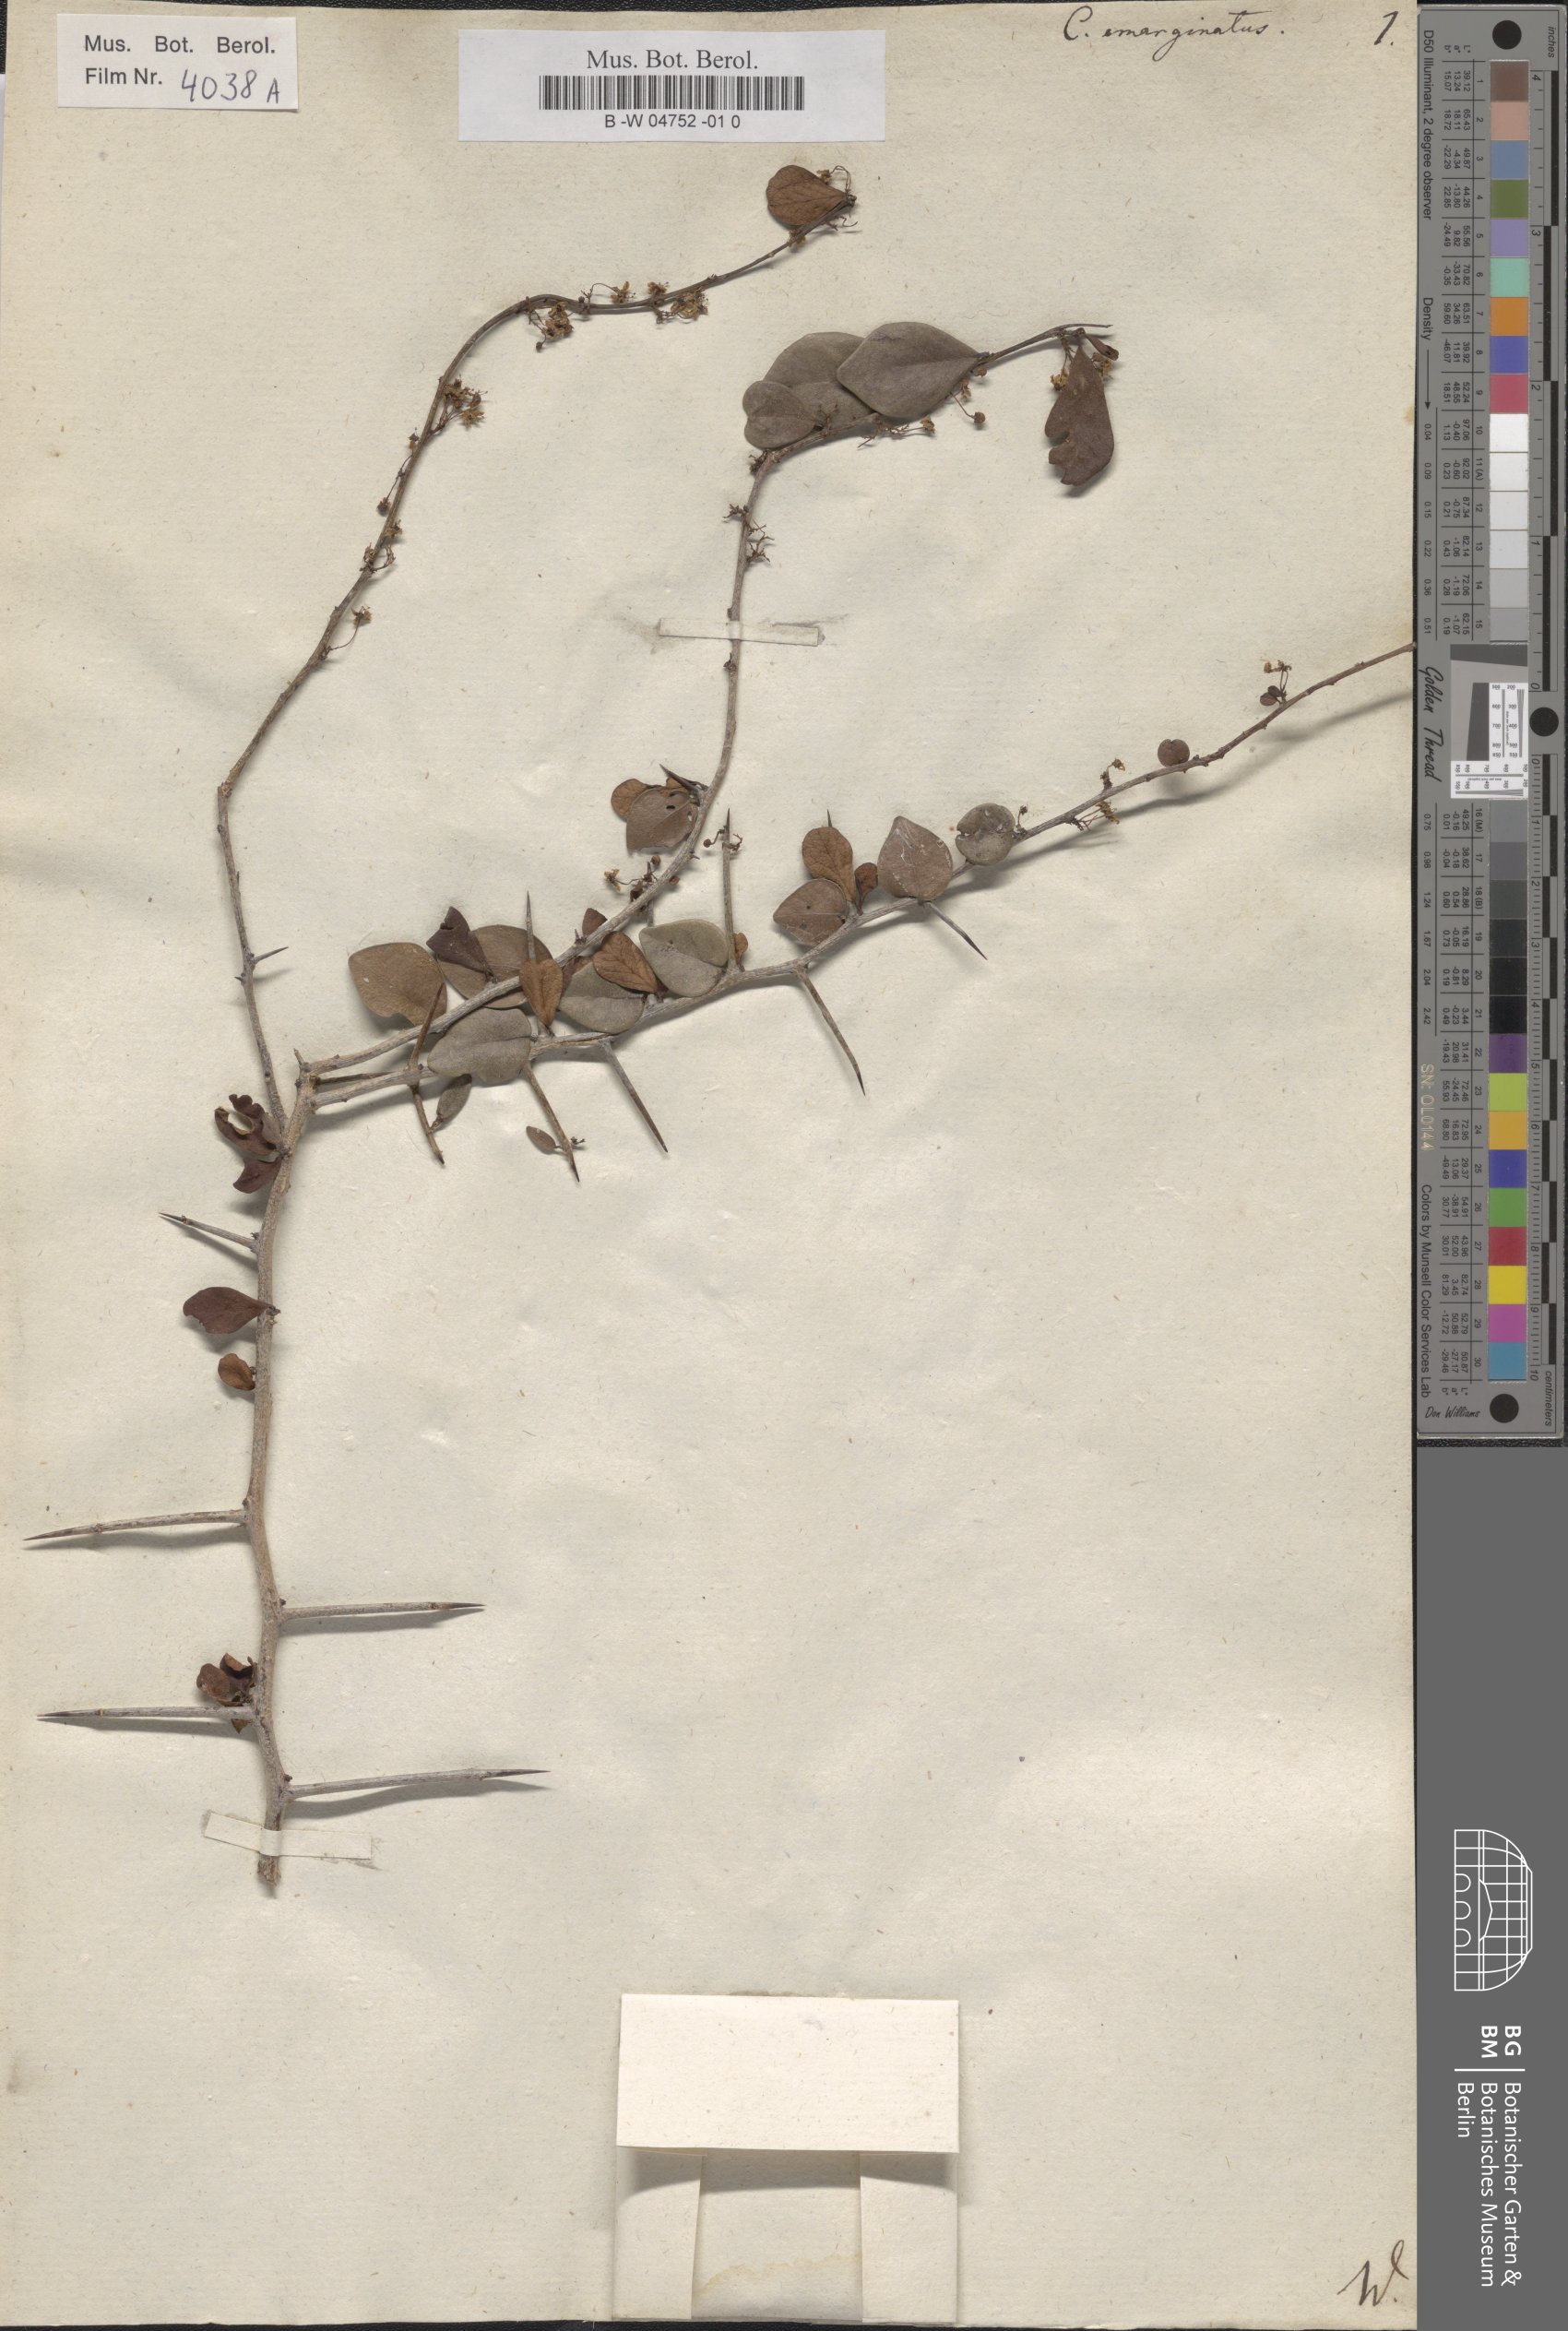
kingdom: Plantae
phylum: Tracheophyta
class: Magnoliopsida
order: Celastrales
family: Celastraceae
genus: Gymnosporia
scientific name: Gymnosporia emarginata
